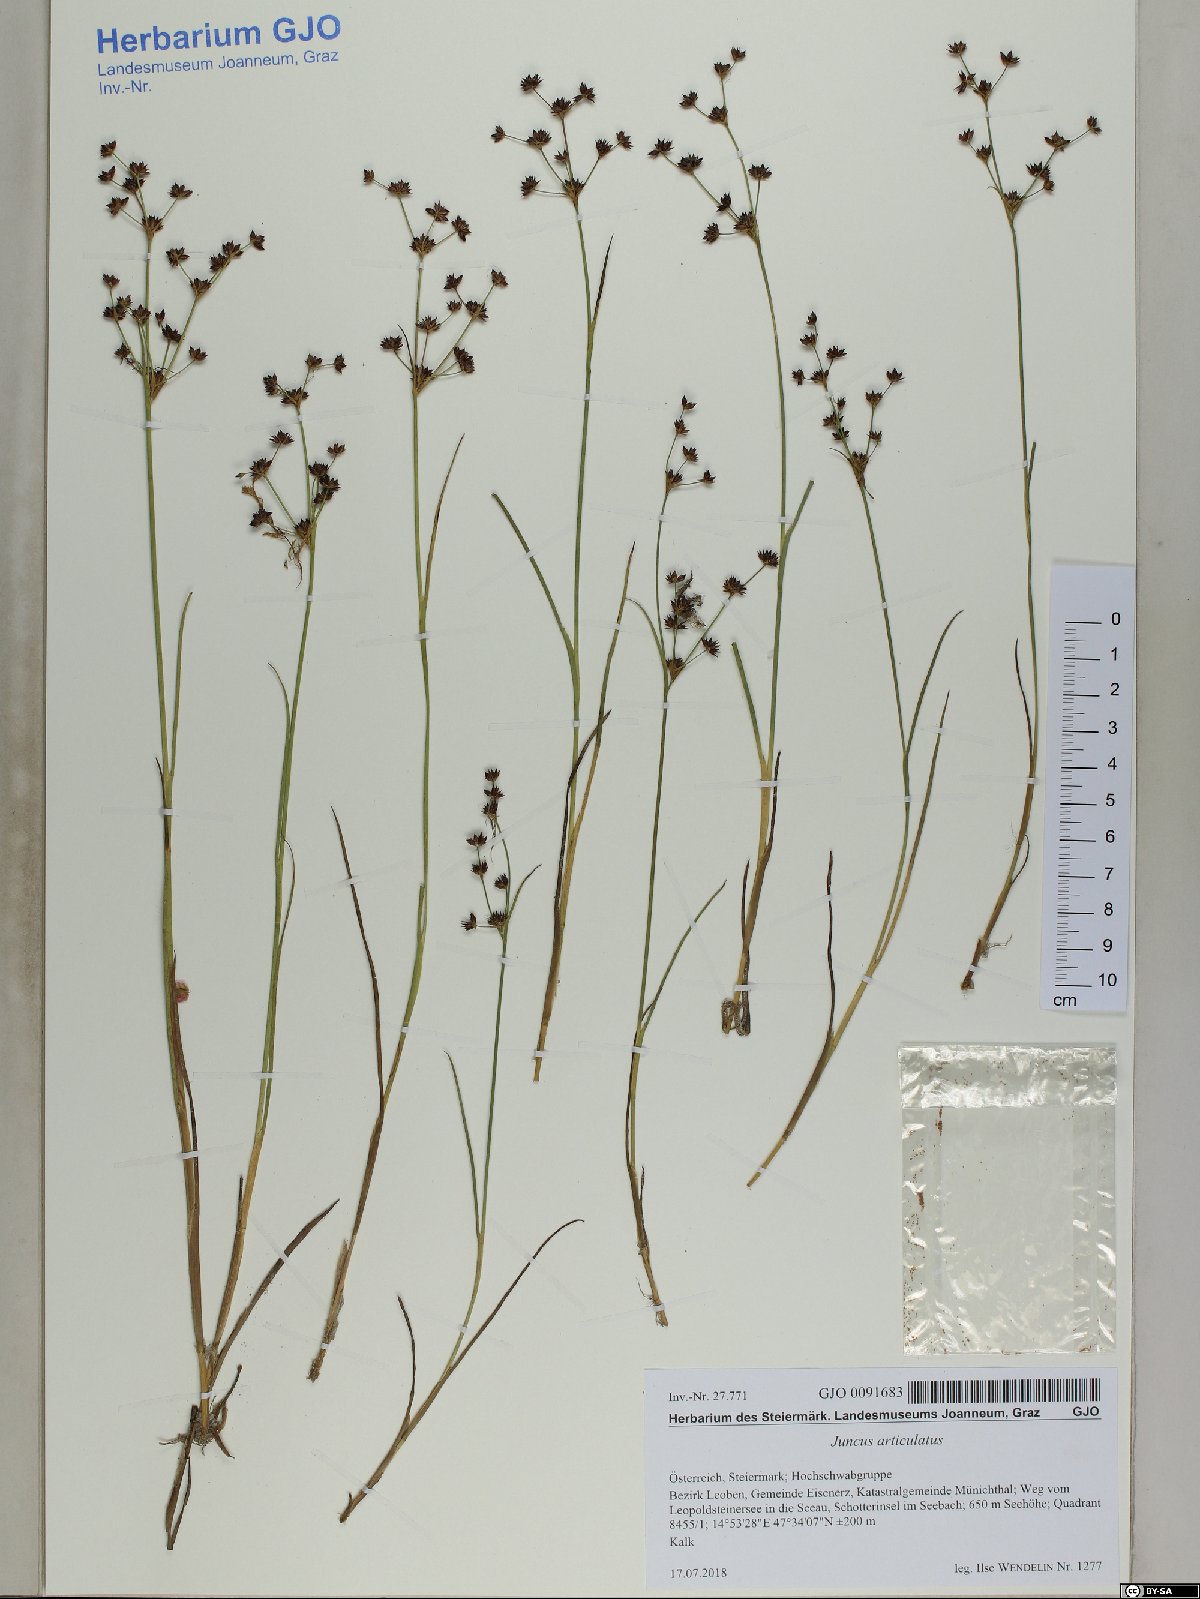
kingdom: Plantae
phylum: Tracheophyta
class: Liliopsida
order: Poales
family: Juncaceae
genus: Juncus
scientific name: Juncus articulatus
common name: Jointed rush
